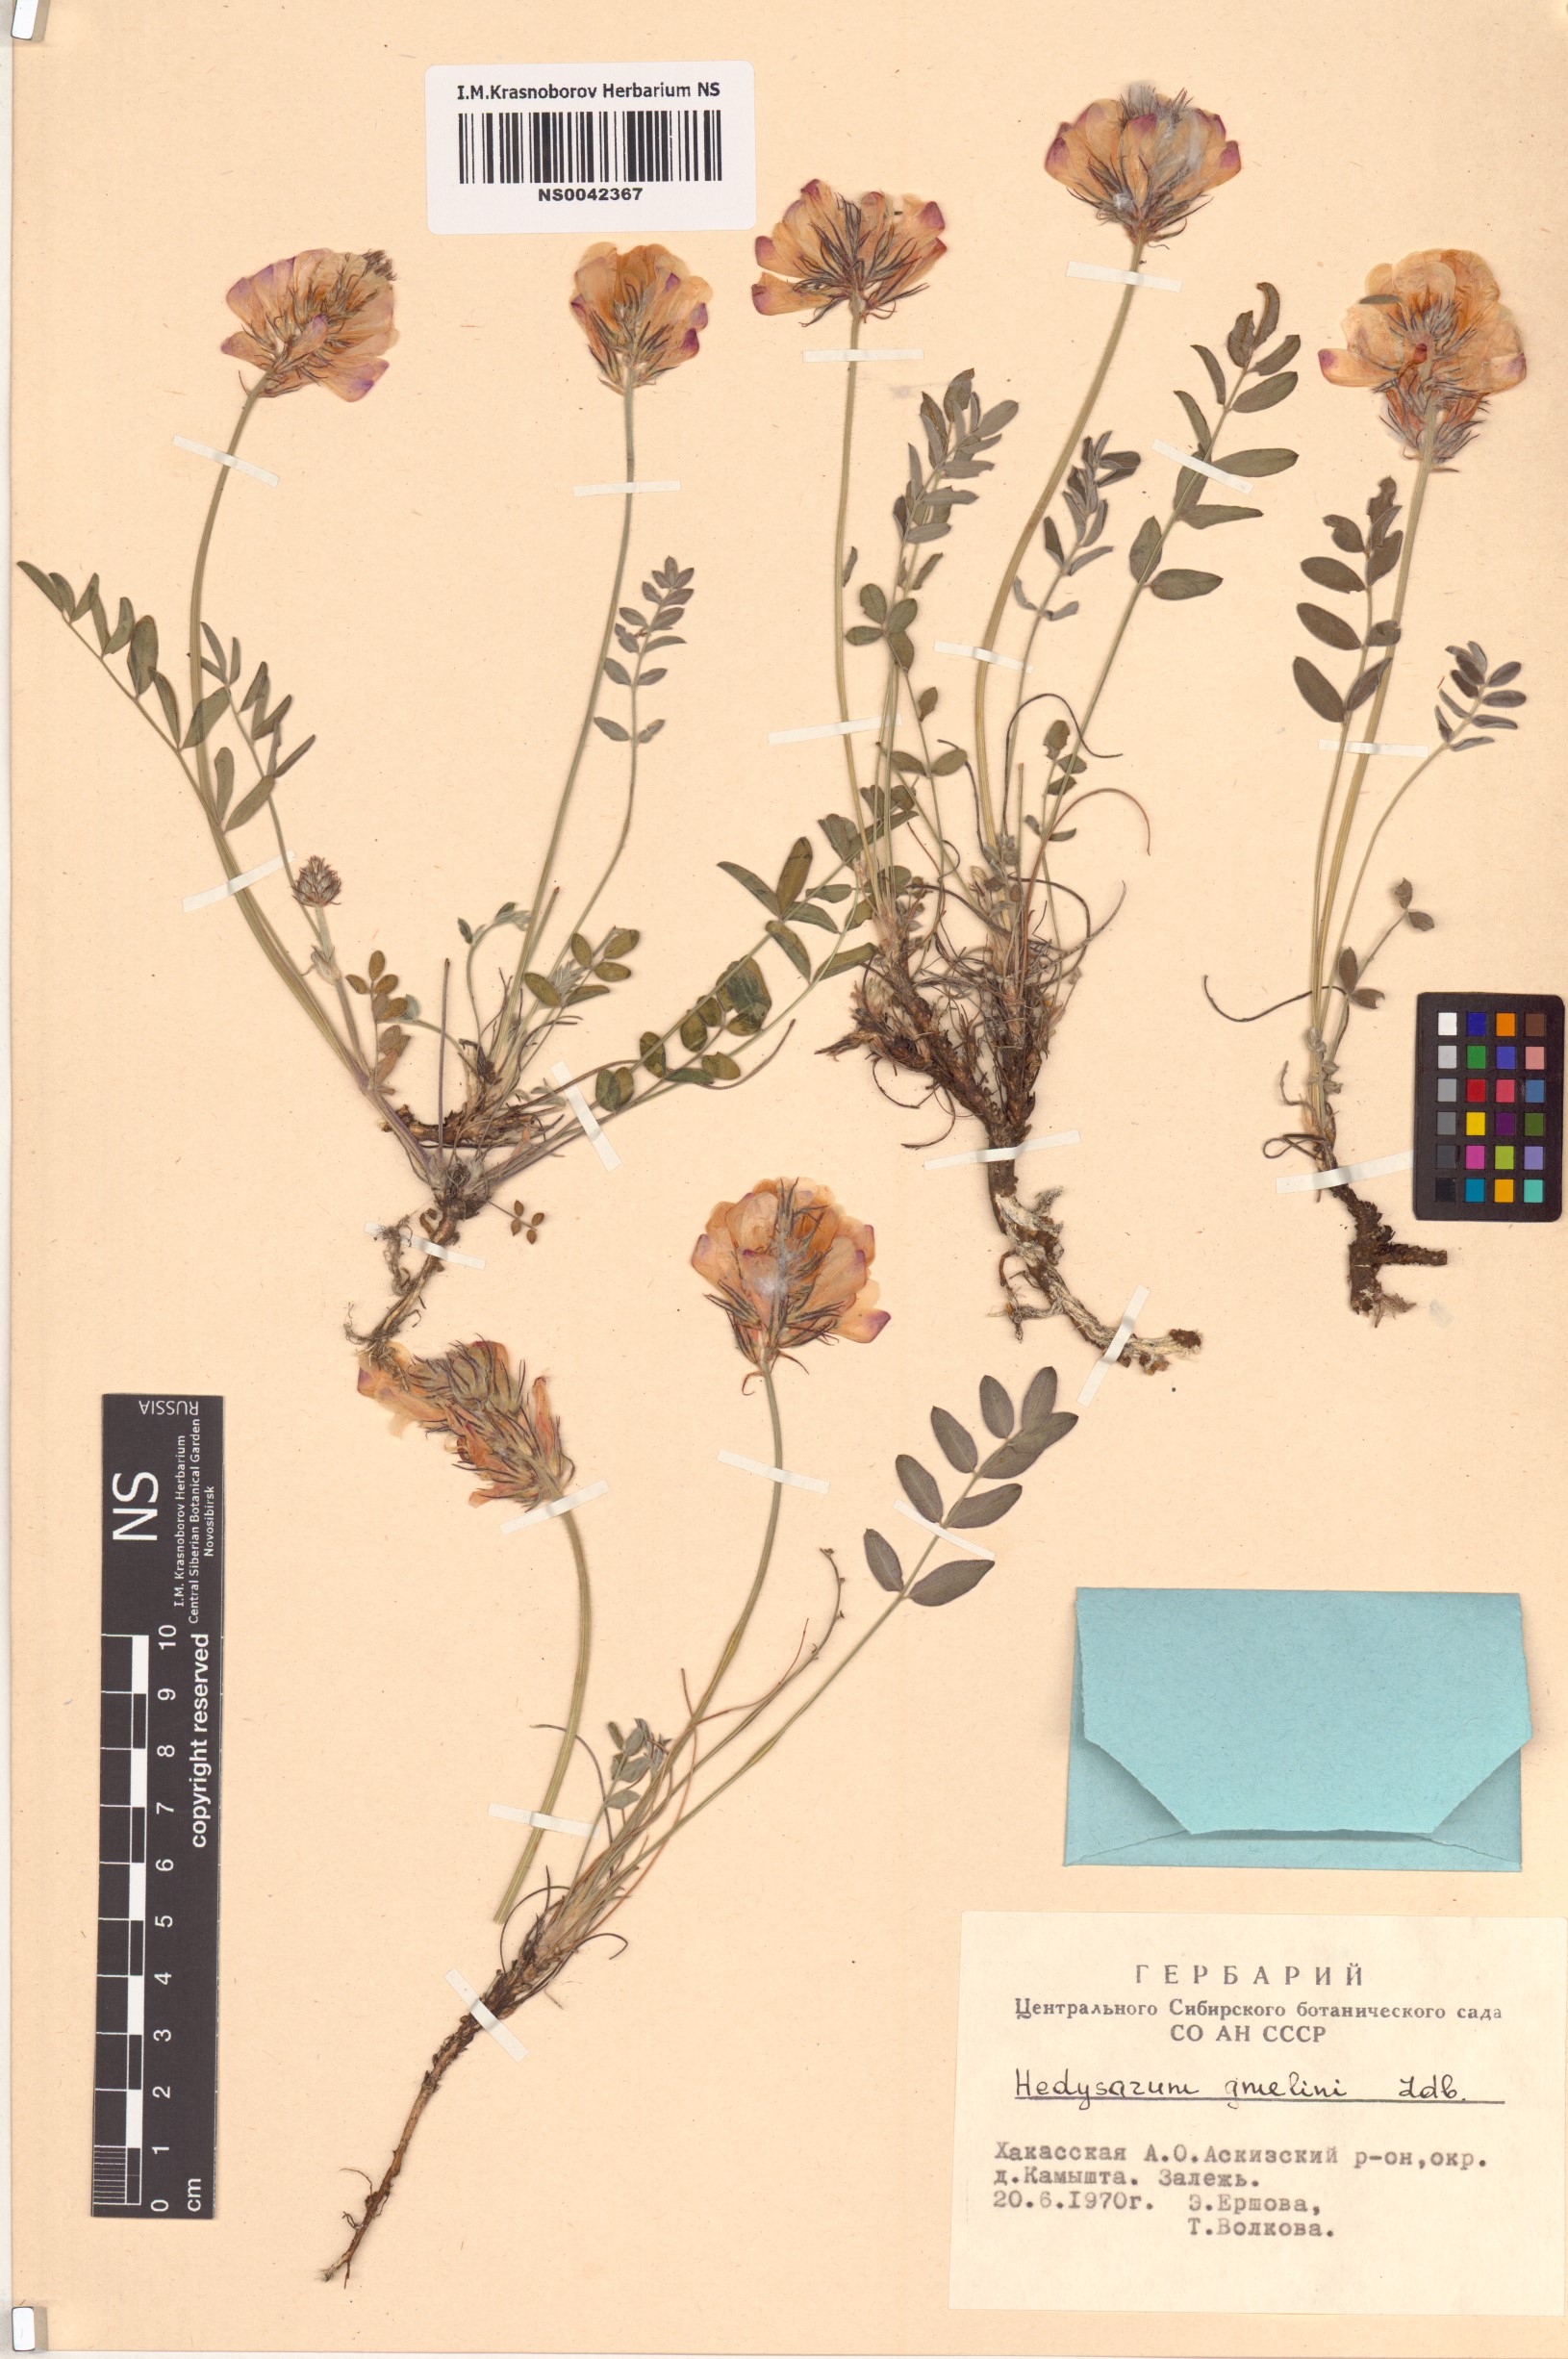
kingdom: Plantae
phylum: Tracheophyta
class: Magnoliopsida
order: Fabales
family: Fabaceae
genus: Hedysarum
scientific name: Hedysarum gmelinii
